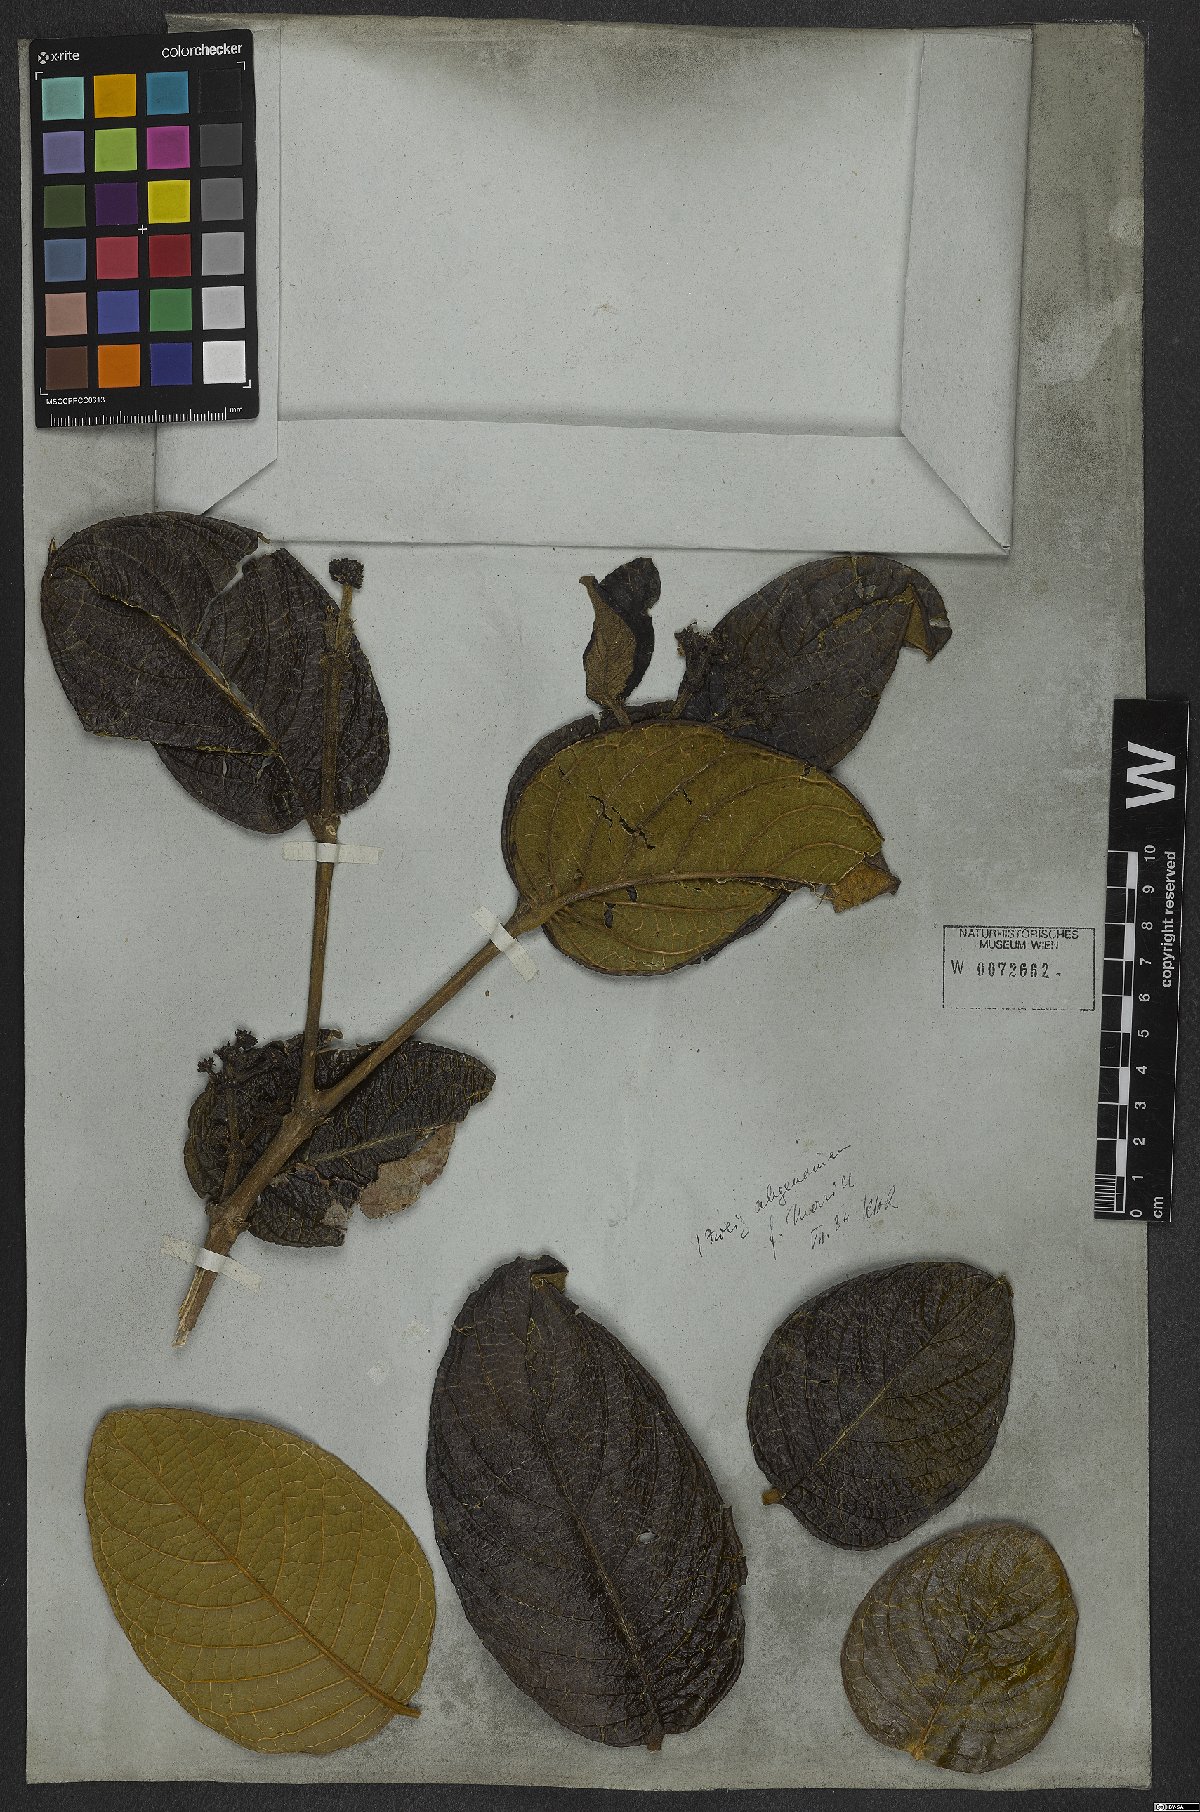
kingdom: Plantae
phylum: Tracheophyta
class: Magnoliopsida
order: Gentianales
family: Rubiaceae
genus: Rudgea
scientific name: Rudgea viburnoides
